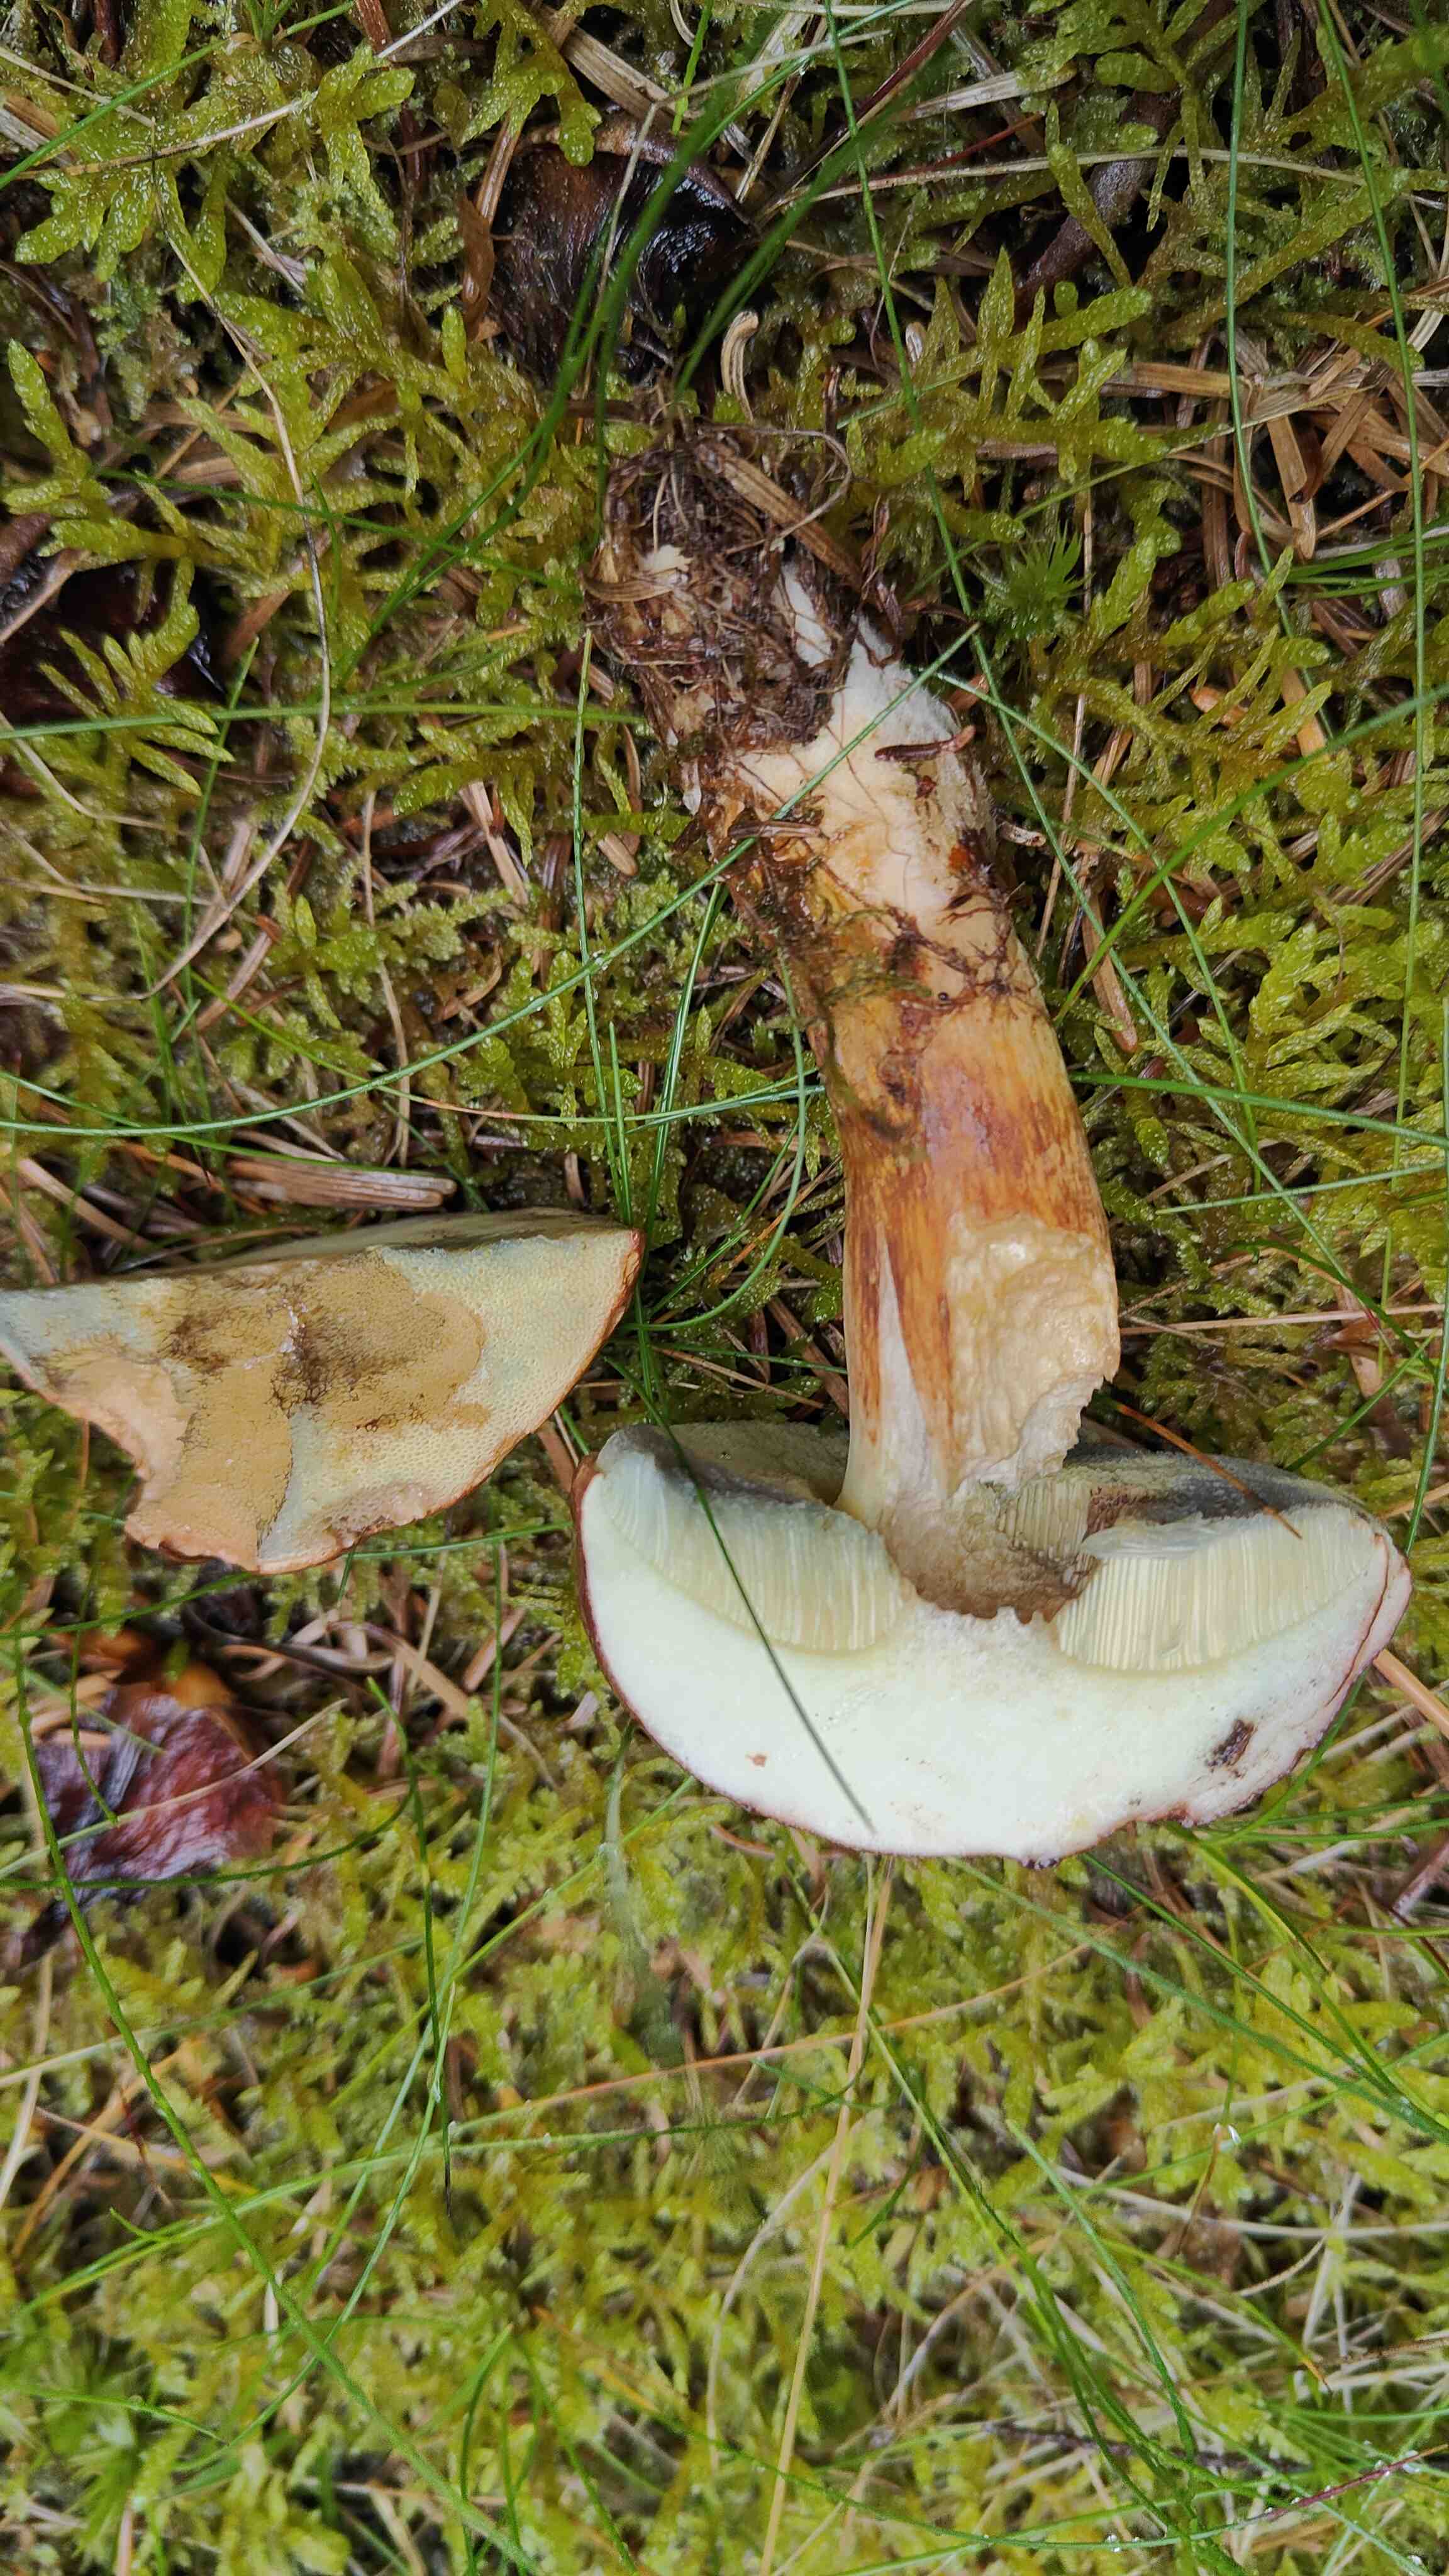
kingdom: Fungi
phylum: Basidiomycota
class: Agaricomycetes
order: Boletales
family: Boletaceae
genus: Imleria
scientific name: Imleria badia
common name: brunstokket rørhat
